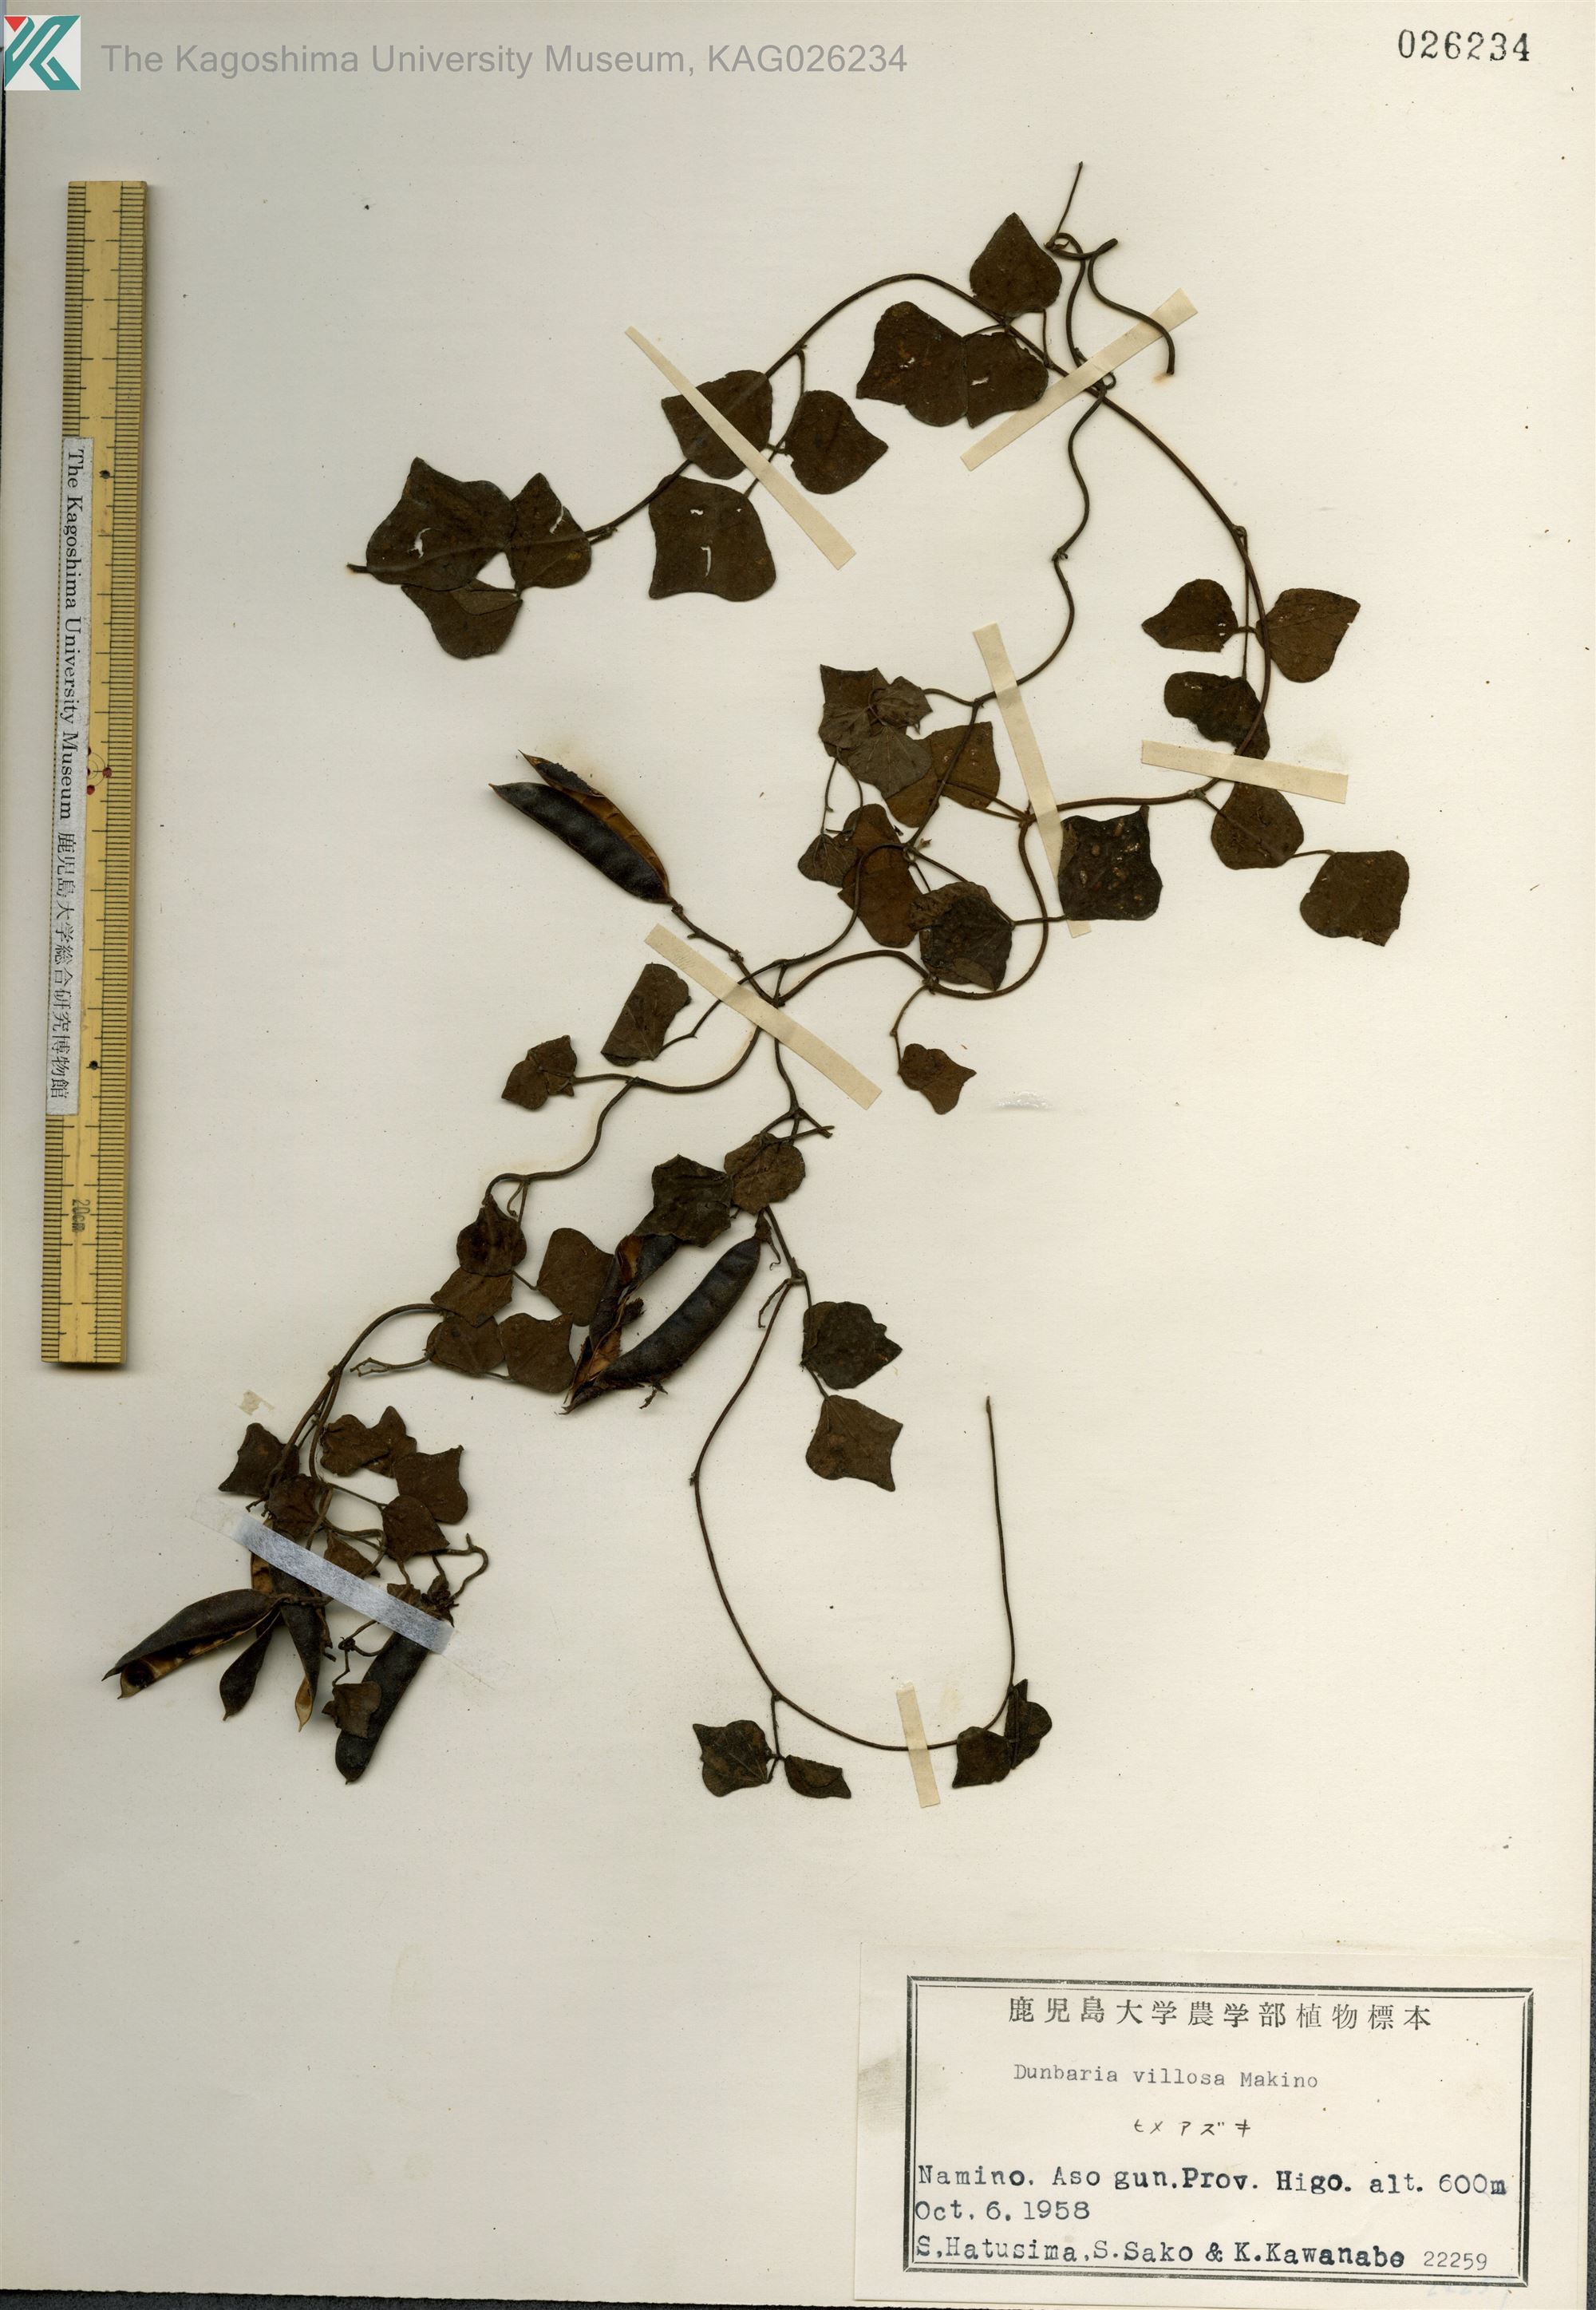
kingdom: Plantae
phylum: Tracheophyta
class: Magnoliopsida
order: Fabales
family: Fabaceae
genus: Dunbaria
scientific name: Dunbaria villosa
